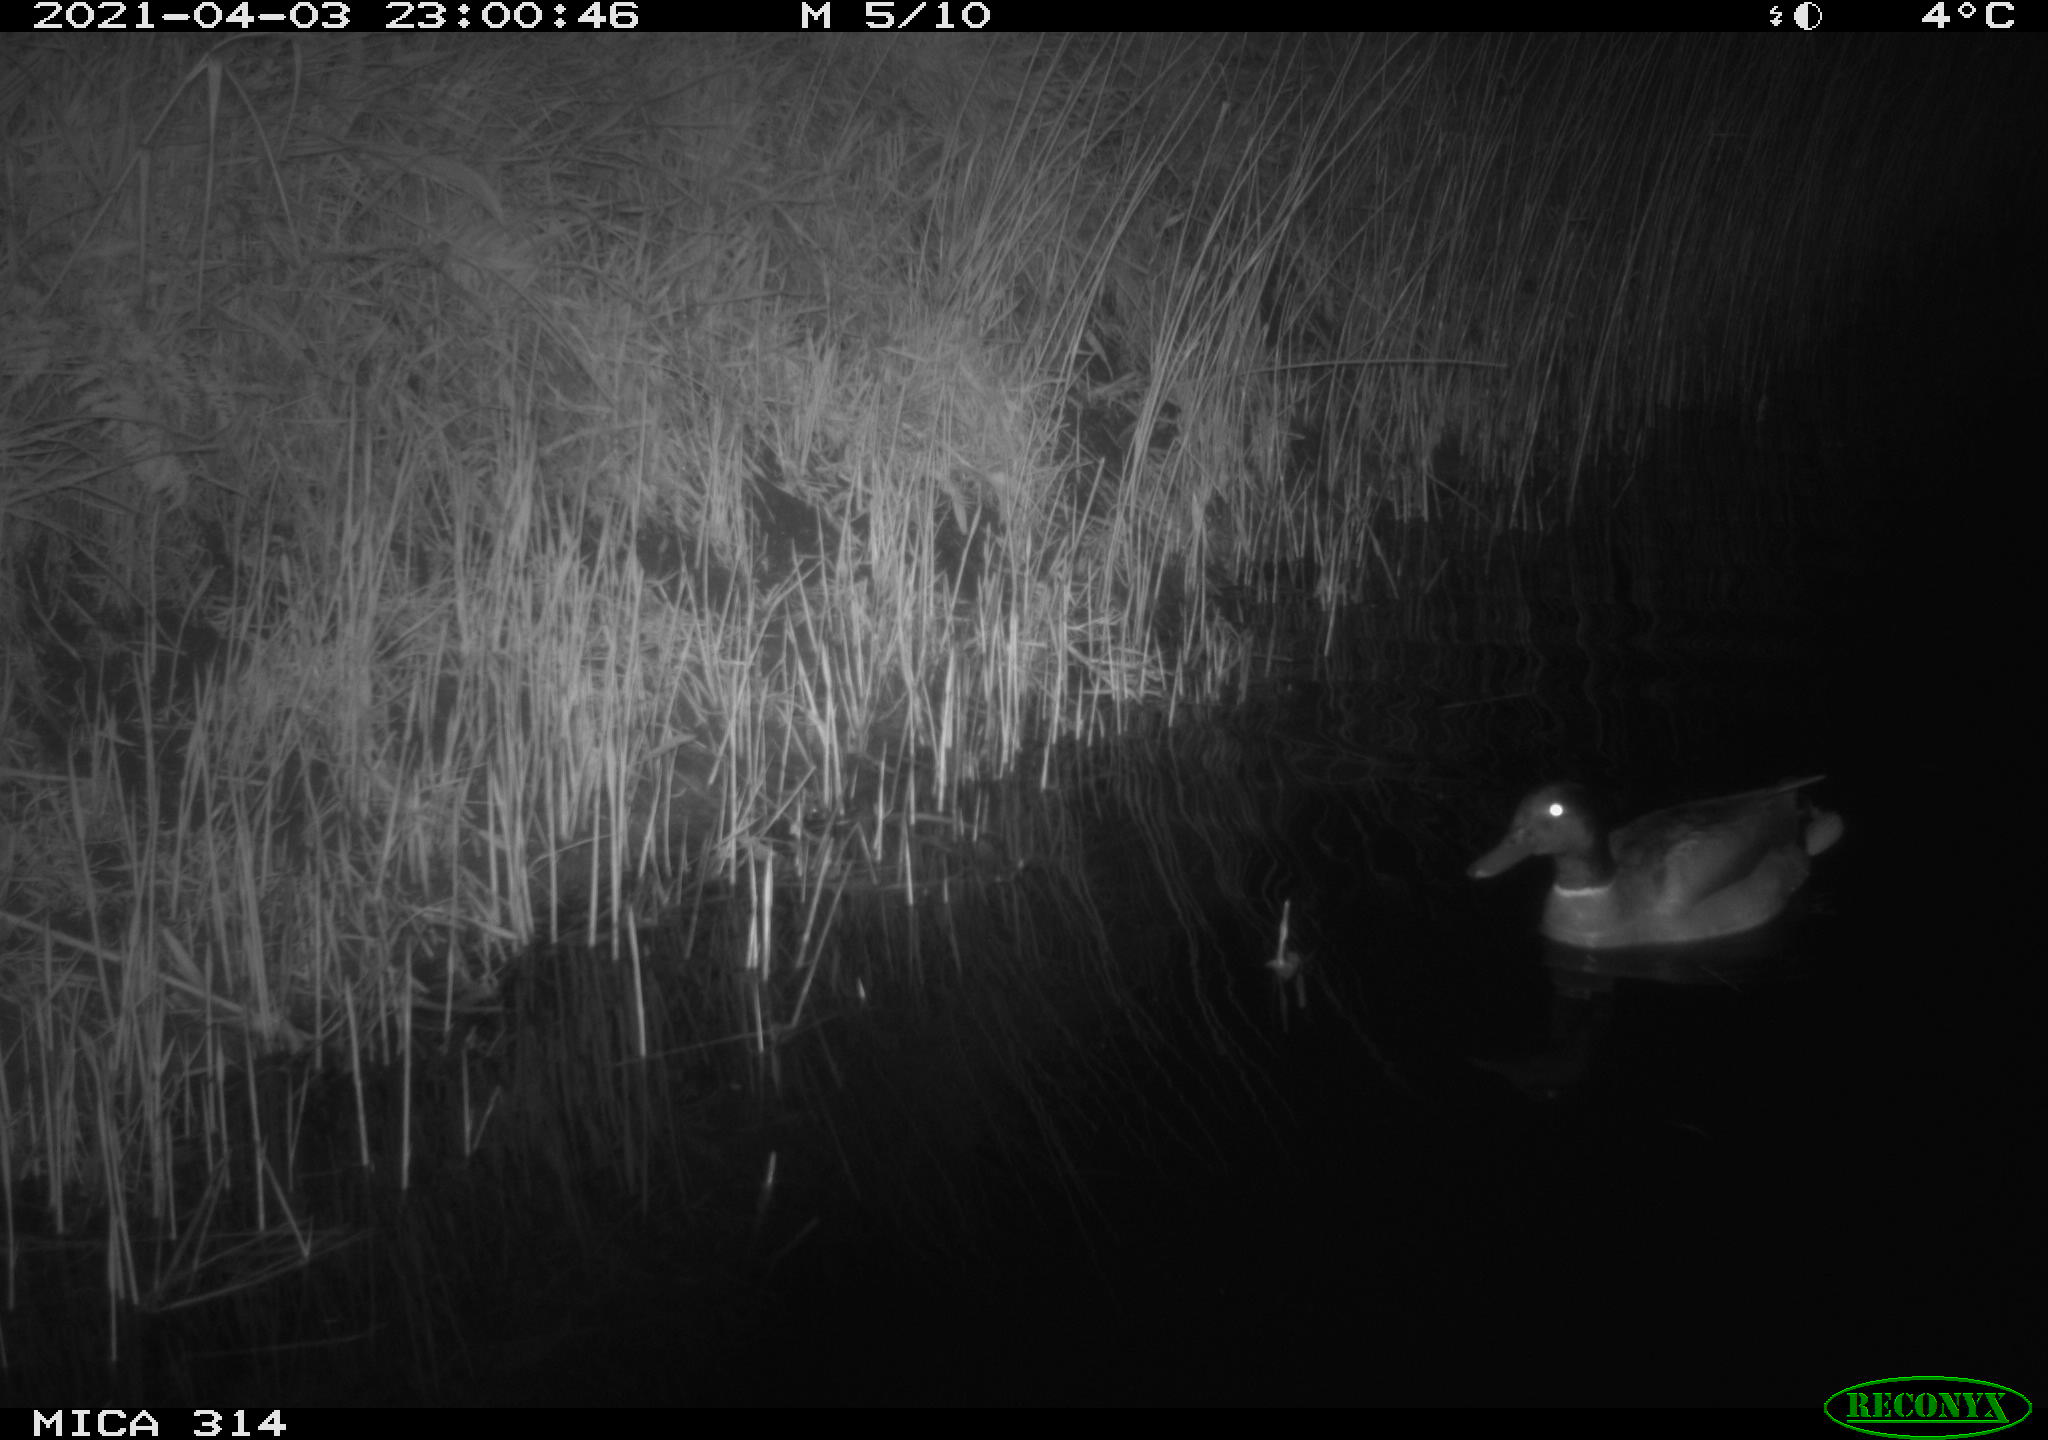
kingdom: Animalia
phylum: Chordata
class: Aves
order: Anseriformes
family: Anatidae
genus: Anas
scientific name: Anas platyrhynchos
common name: Mallard
